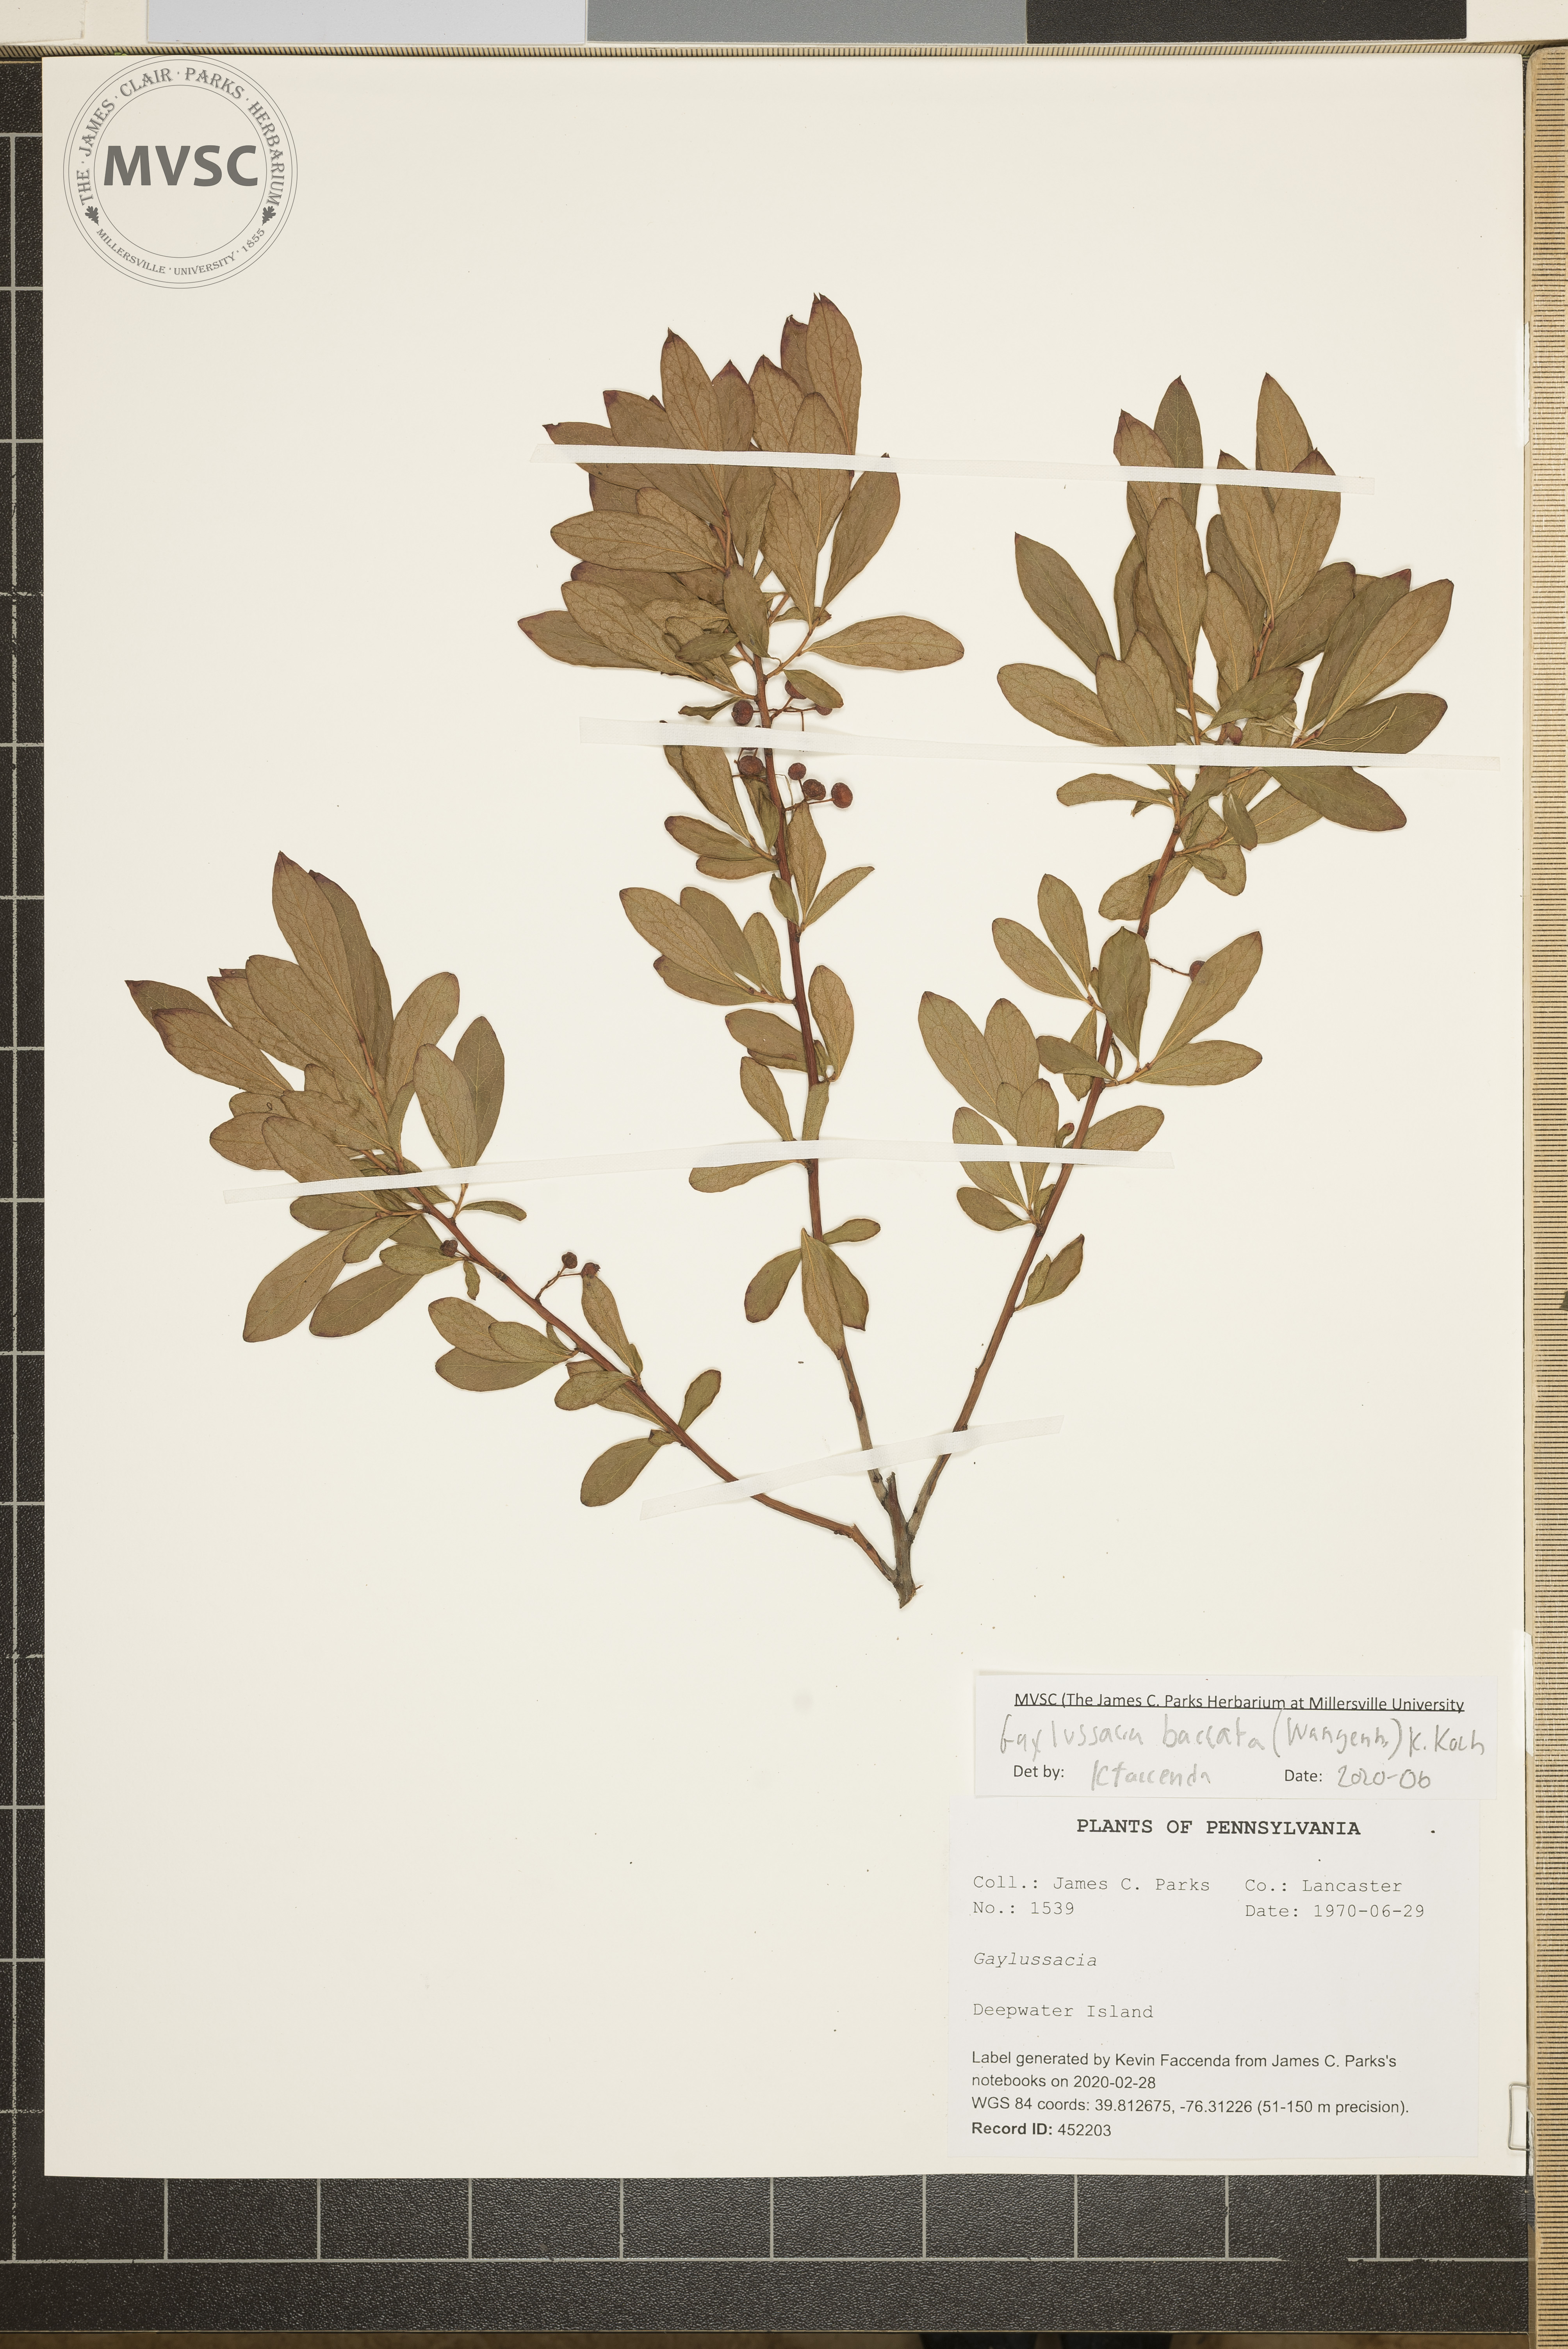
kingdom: Plantae
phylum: Tracheophyta
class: Magnoliopsida
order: Ericales
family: Ericaceae
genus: Gaylussacia
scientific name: Gaylussacia
